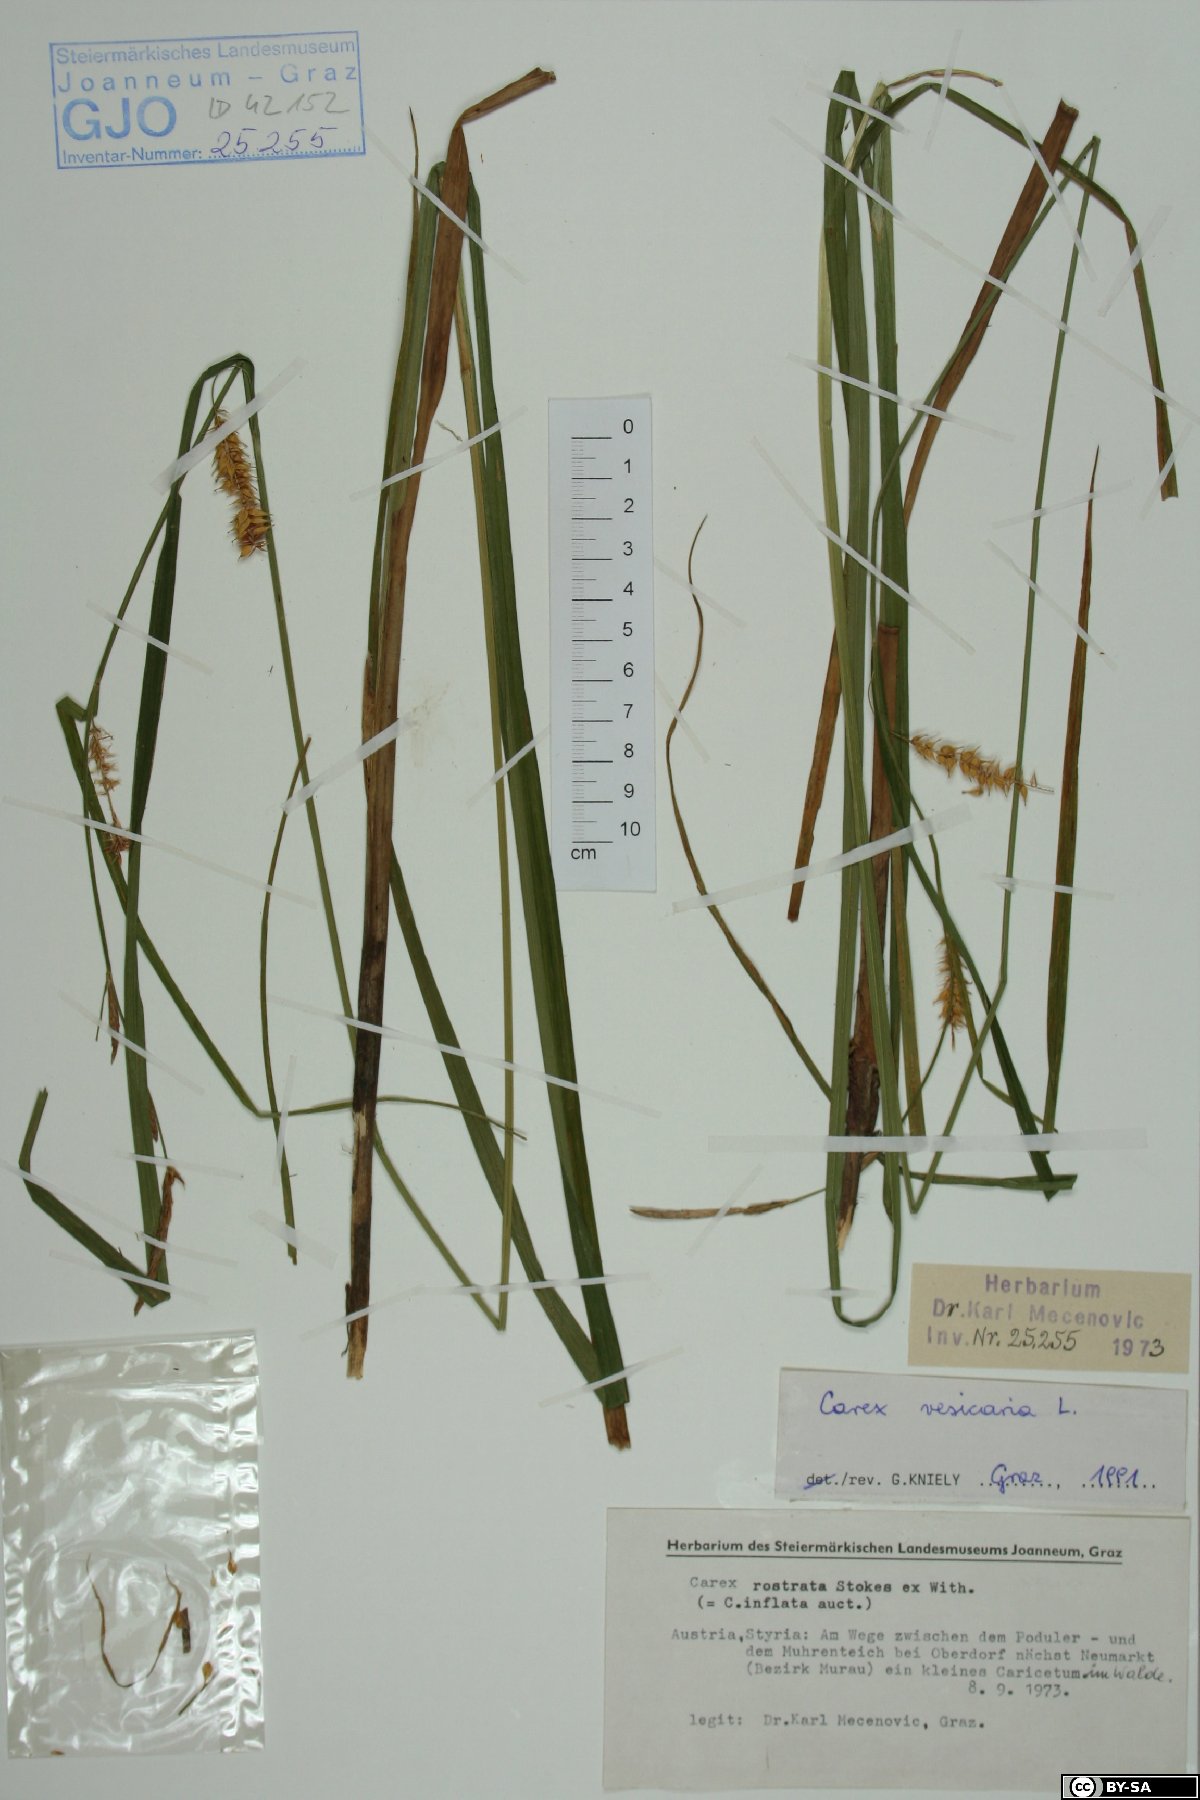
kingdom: Plantae
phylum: Tracheophyta
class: Liliopsida
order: Poales
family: Cyperaceae
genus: Carex
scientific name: Carex vesicaria
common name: Bladder-sedge
